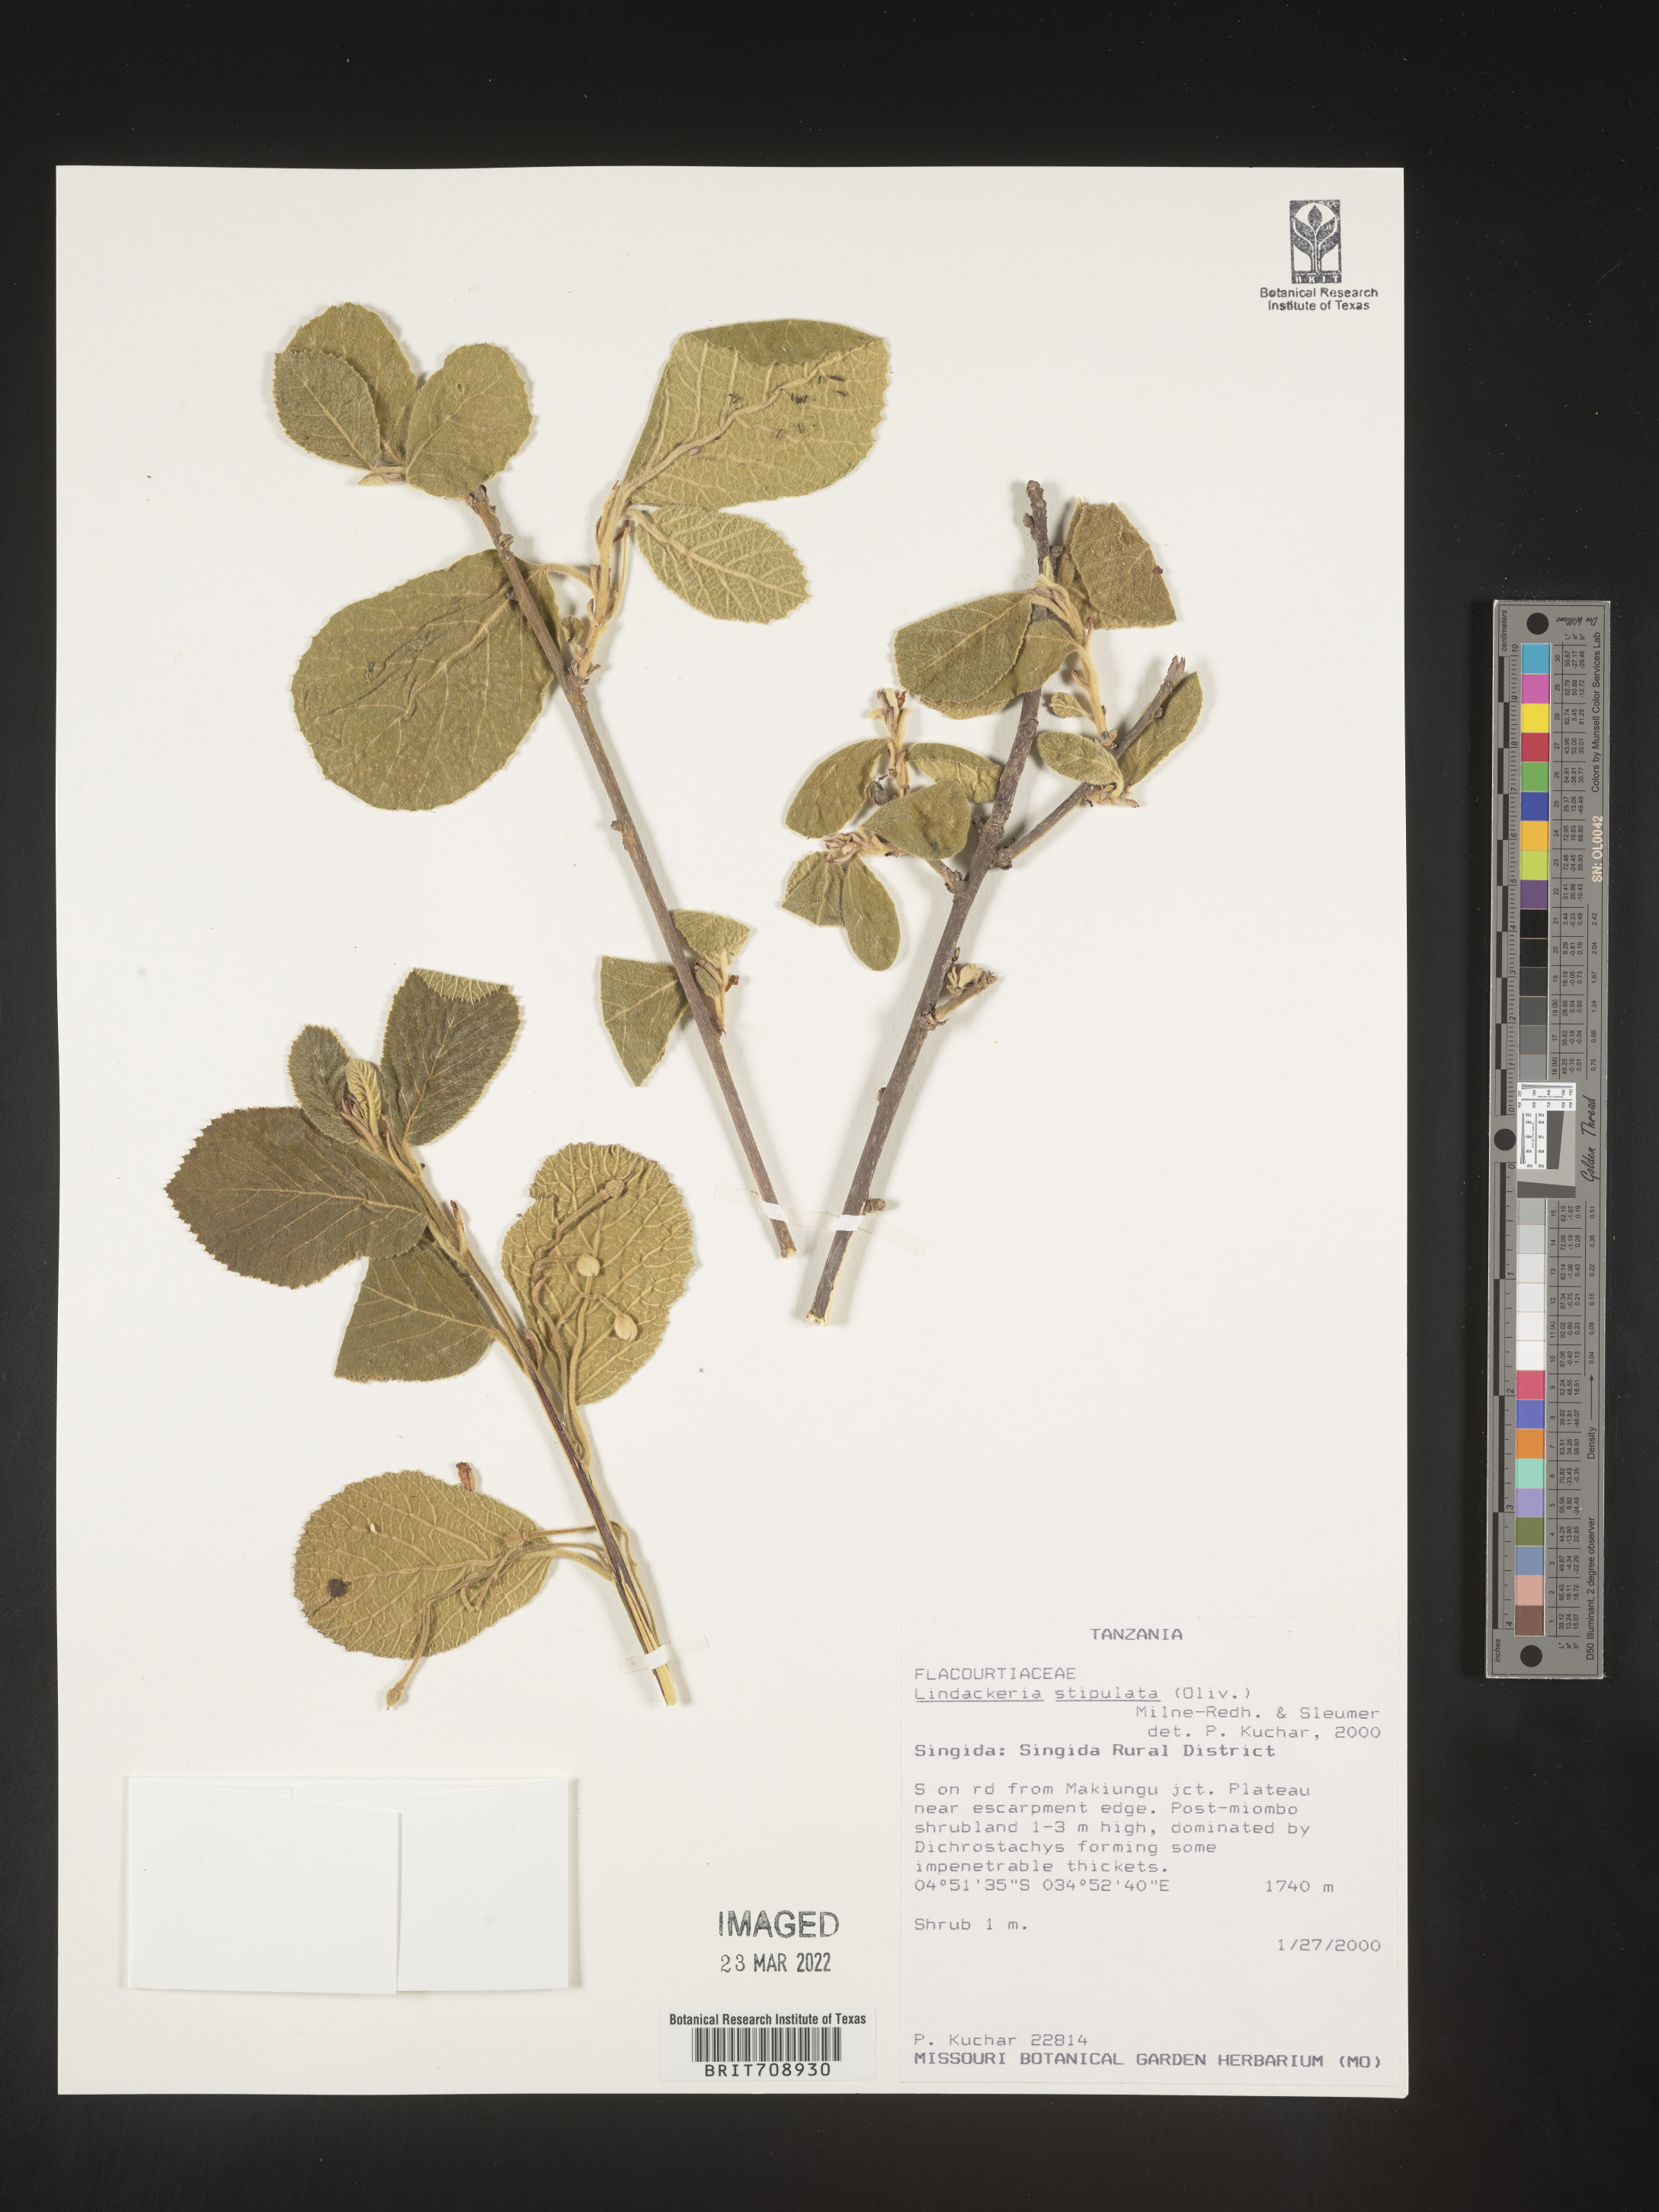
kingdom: Plantae
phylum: Tracheophyta
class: Magnoliopsida
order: Malpighiales
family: Achariaceae
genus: Lindackeria
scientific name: Lindackeria
